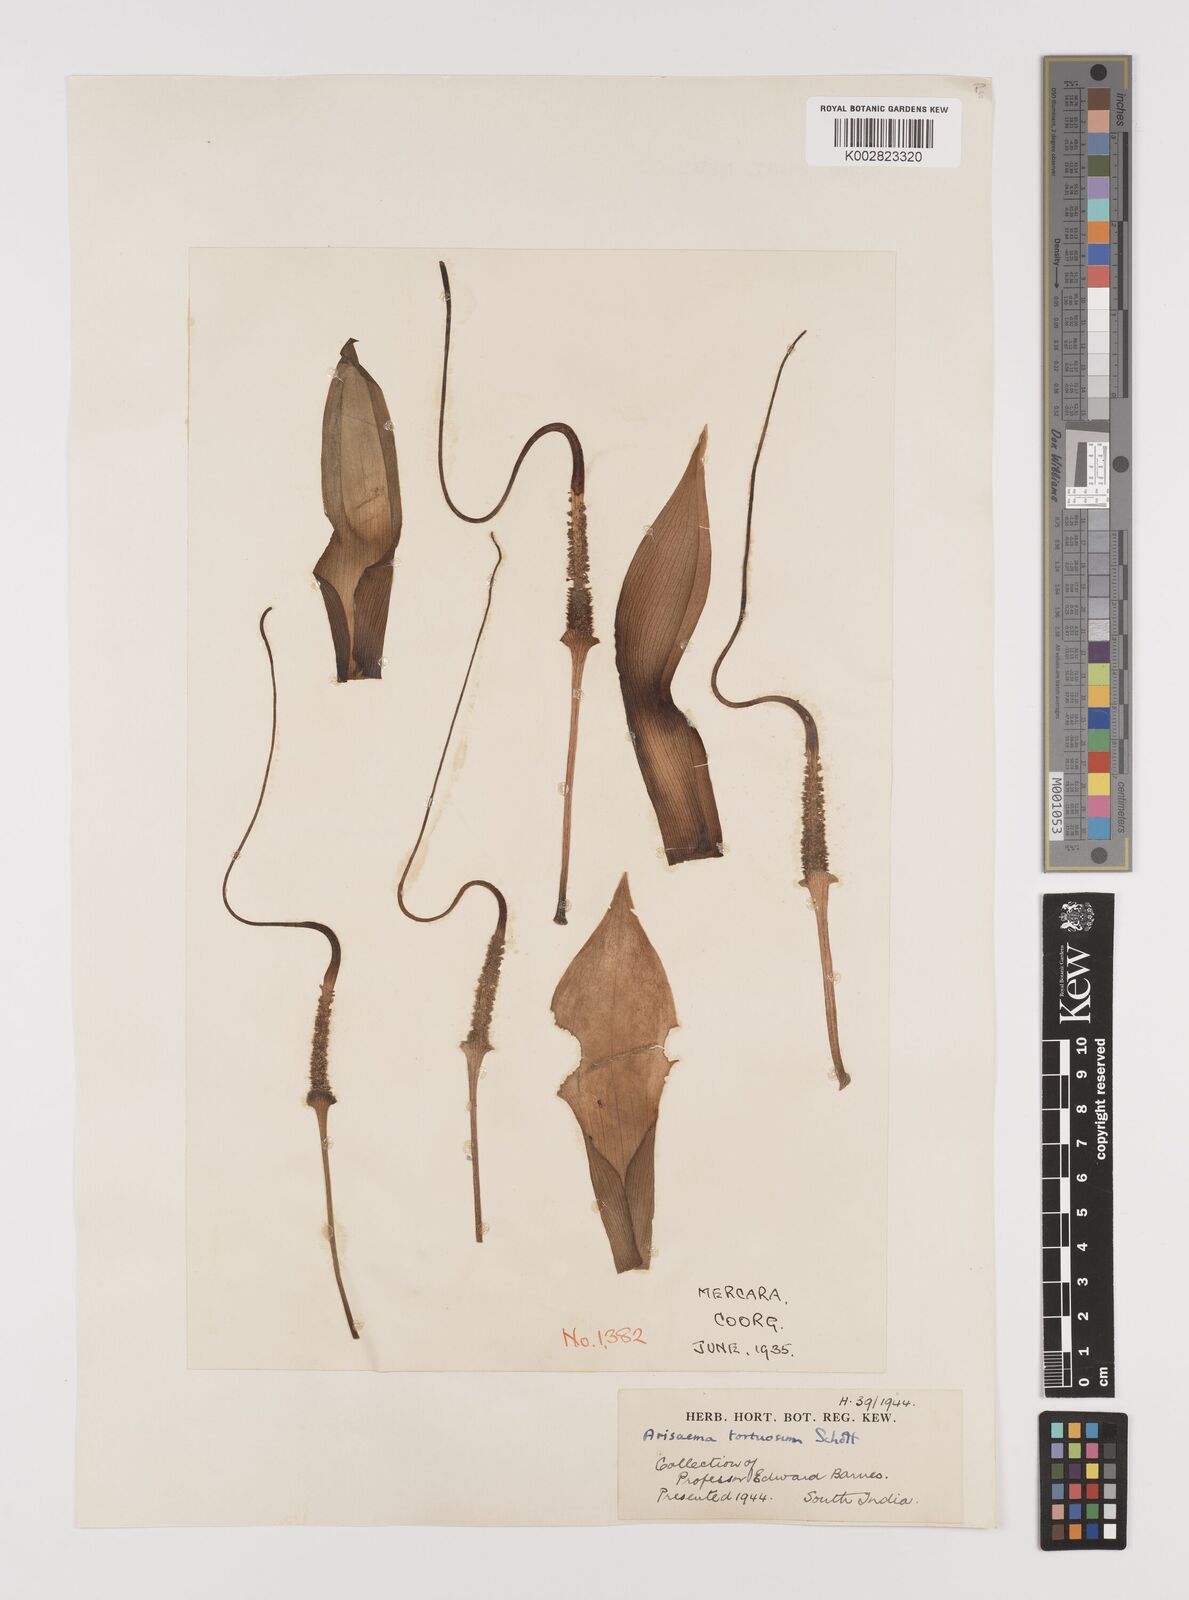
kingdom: Plantae
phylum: Tracheophyta
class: Liliopsida
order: Alismatales
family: Araceae
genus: Arisaema
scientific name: Arisaema tortuosum
